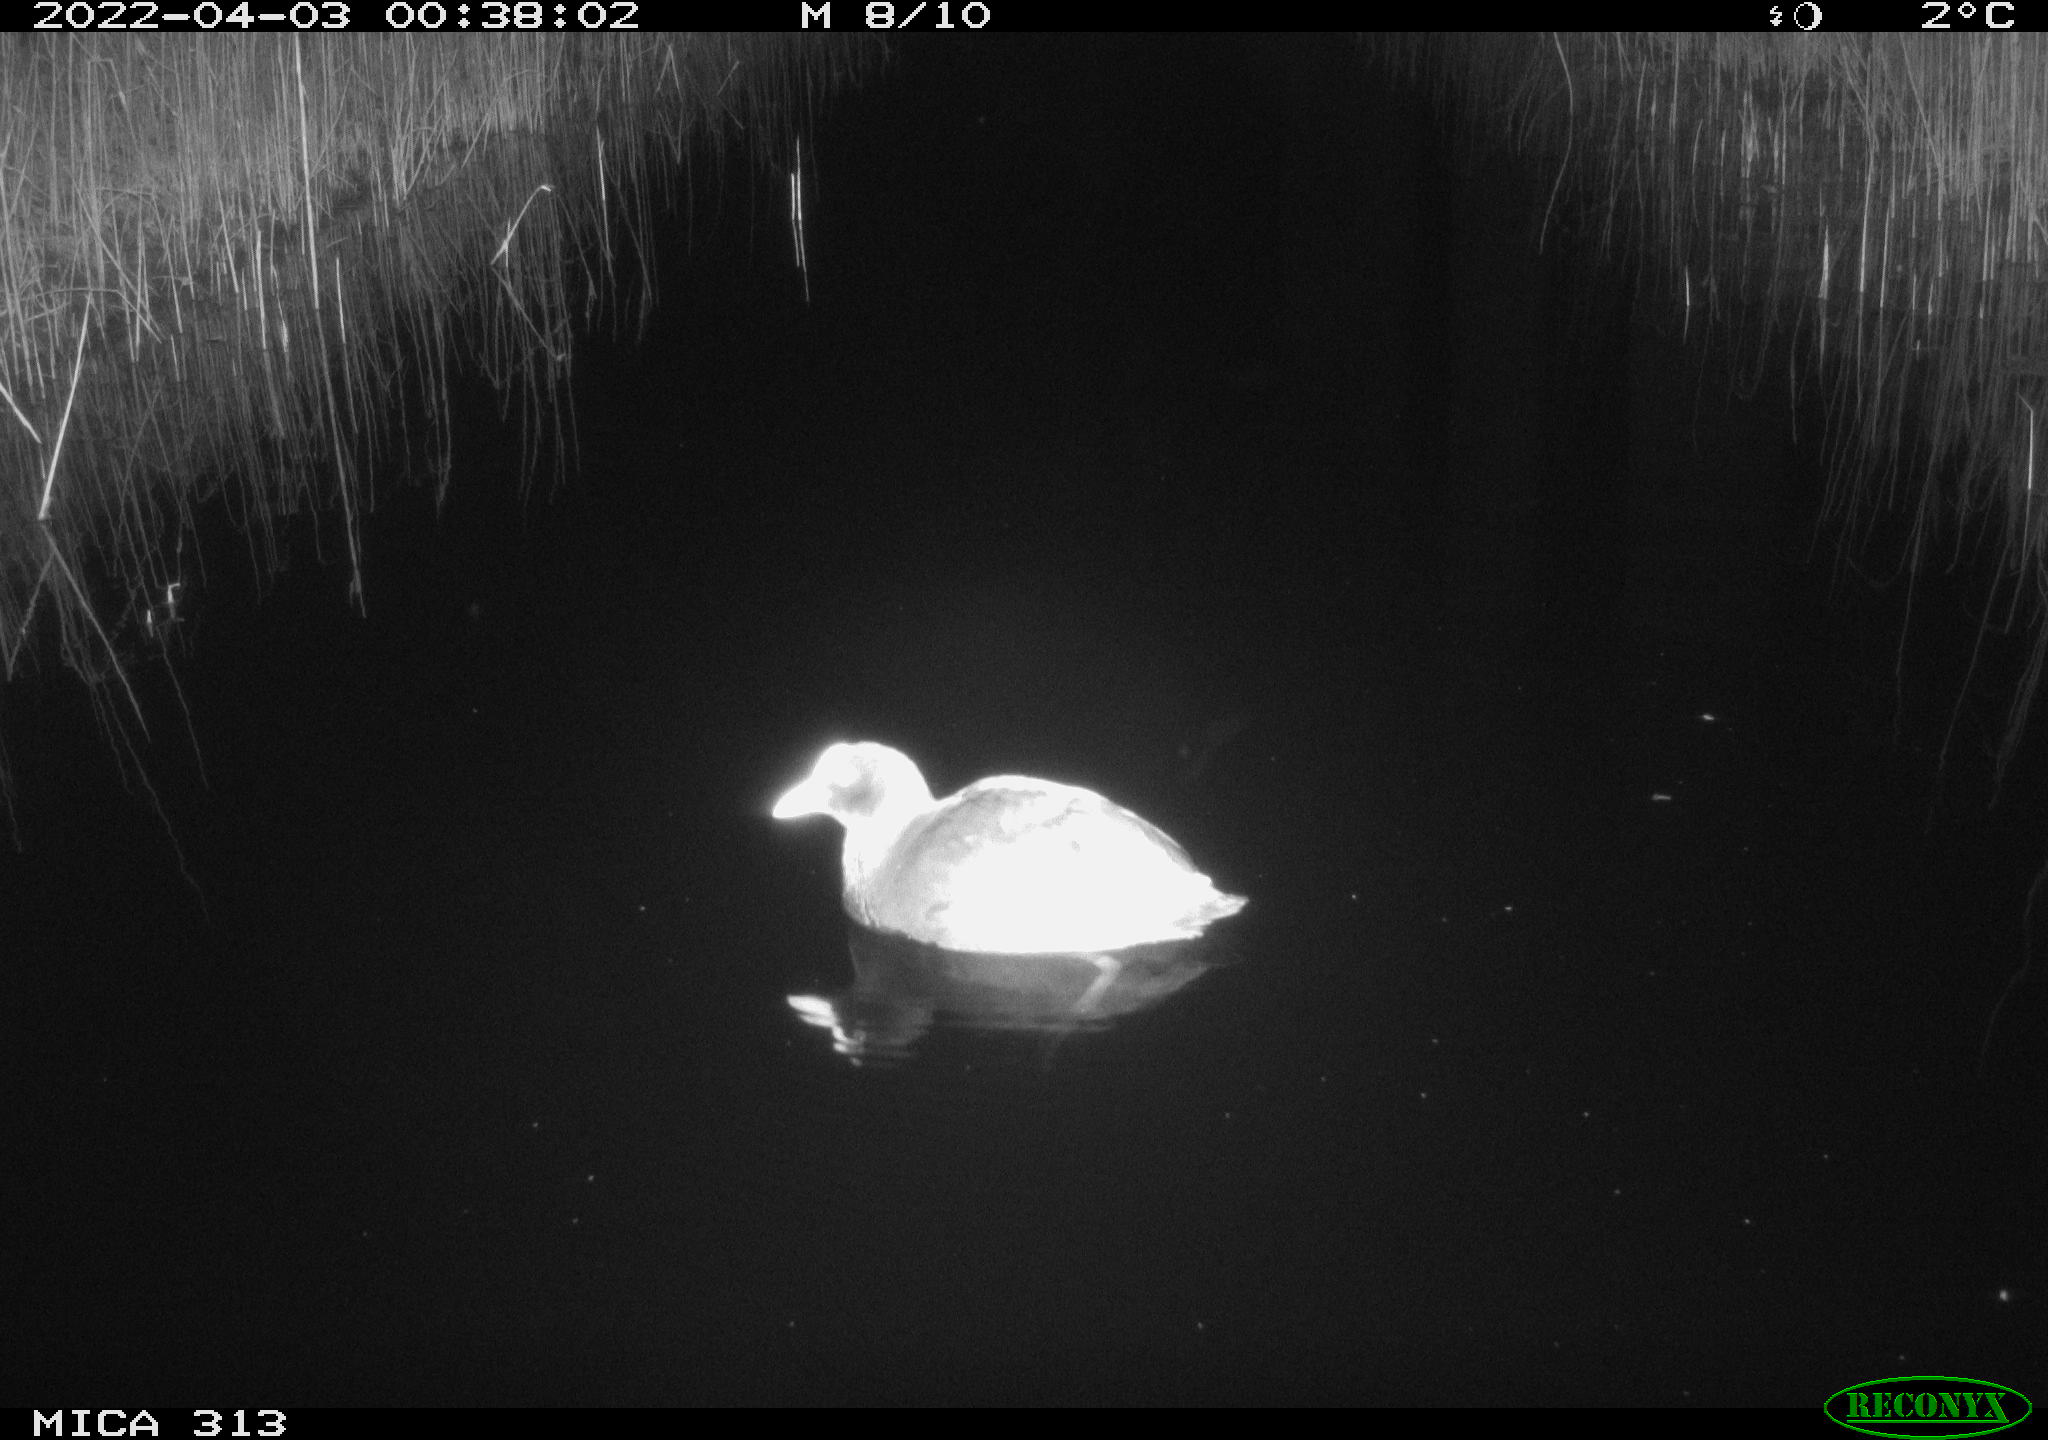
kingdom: Animalia
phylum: Chordata
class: Aves
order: Gruiformes
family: Rallidae
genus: Fulica
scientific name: Fulica atra
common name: Eurasian coot
